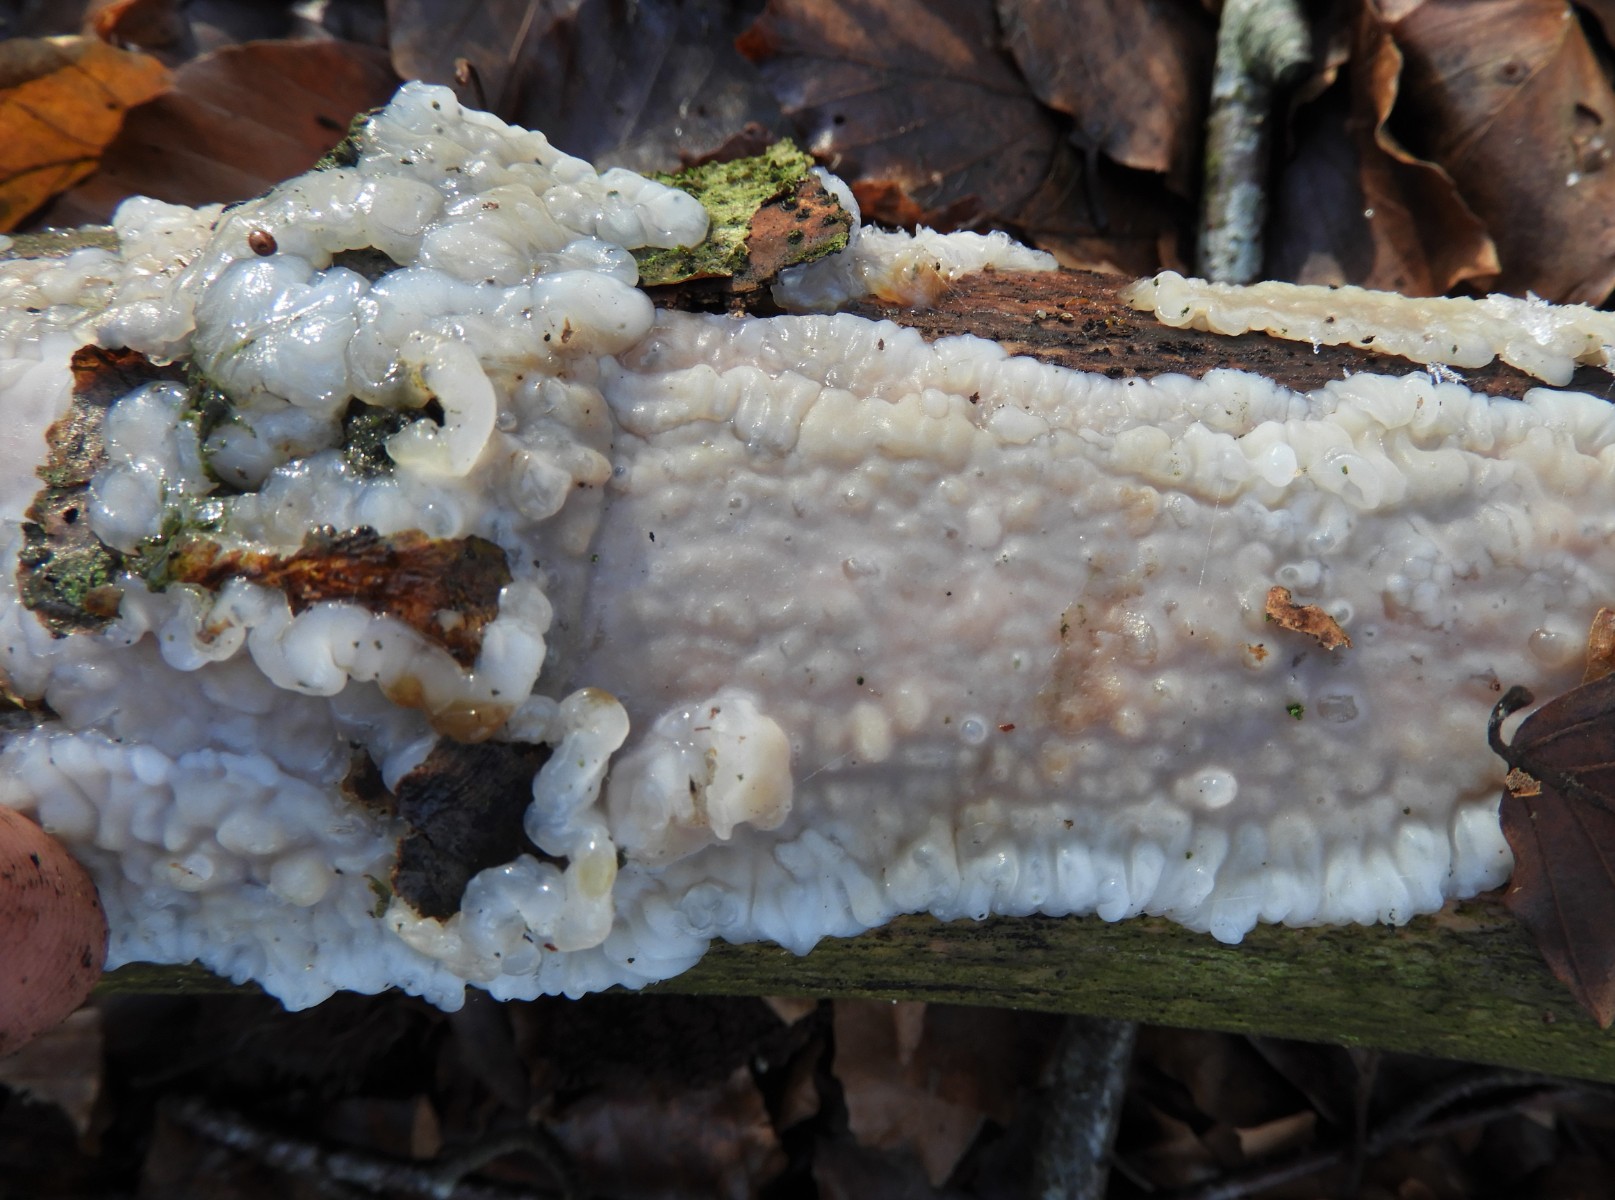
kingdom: Fungi
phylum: Basidiomycota
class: Agaricomycetes
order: Auriculariales
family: Auriculariaceae
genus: Exidia
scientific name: Exidia thuretiana
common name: hvidlig bævretop
